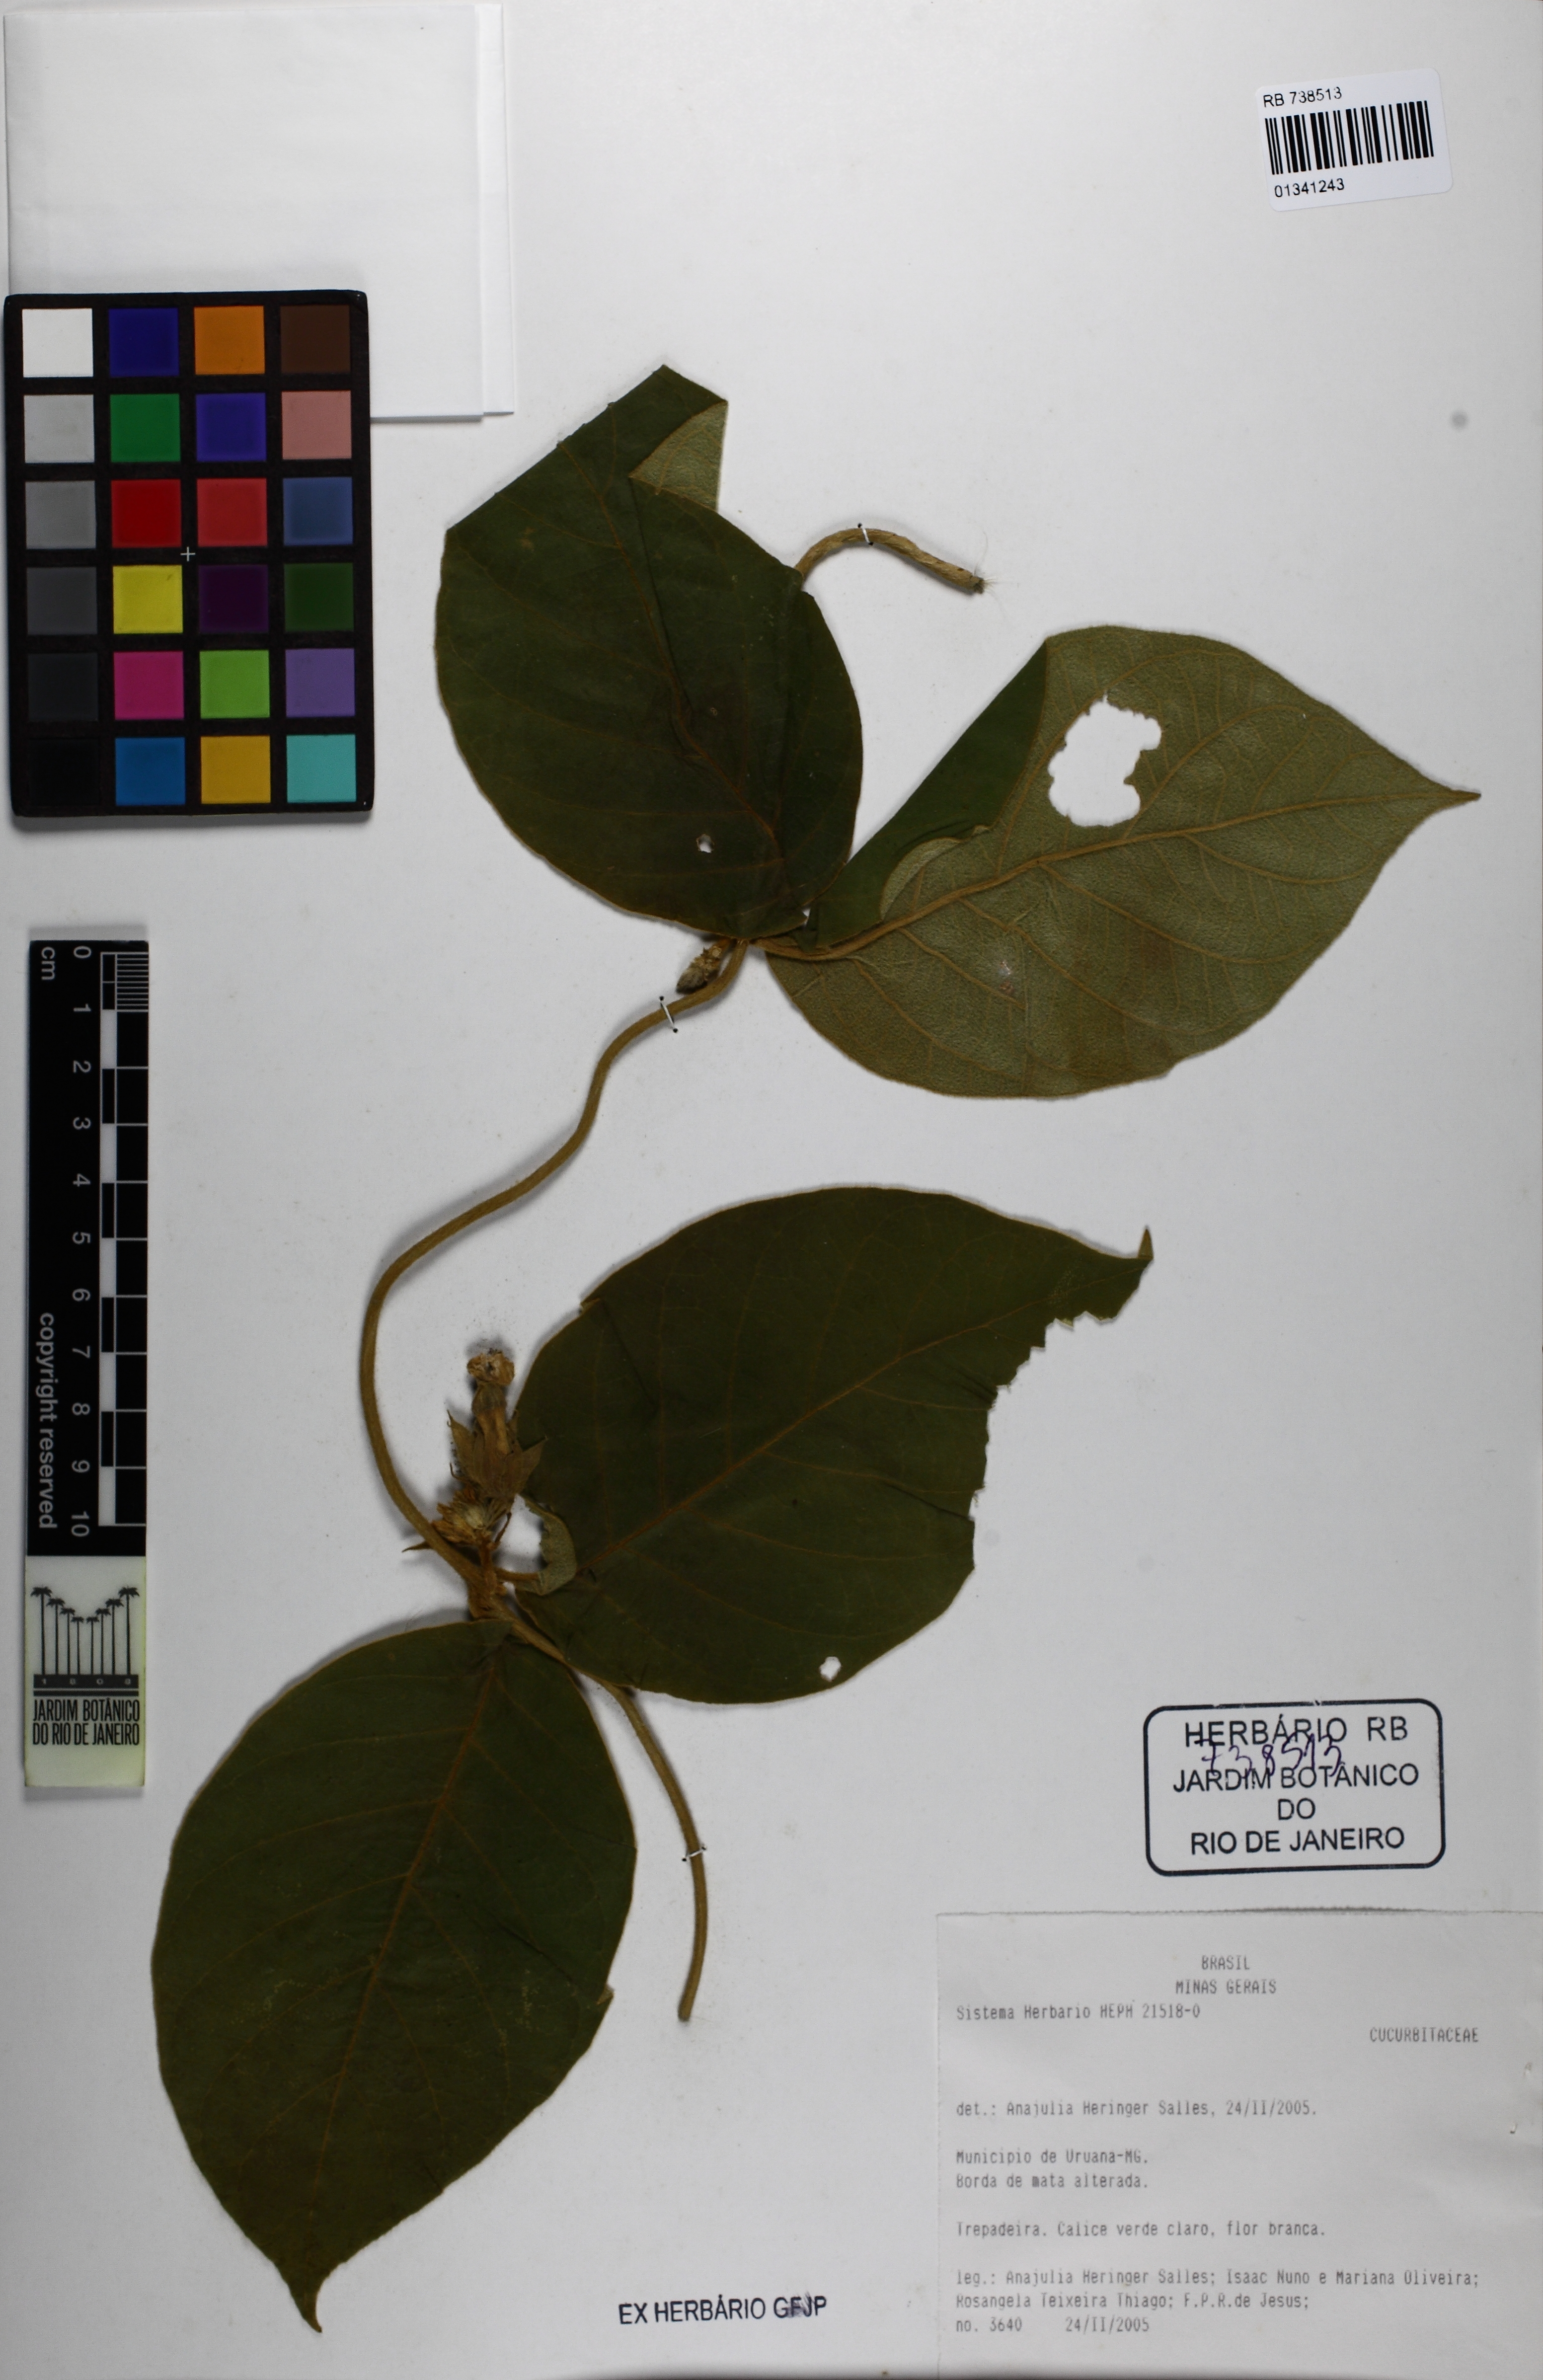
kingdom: Plantae
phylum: Tracheophyta
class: Magnoliopsida
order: Gentianales
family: Apocynaceae
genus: Prestonia
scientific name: Prestonia
